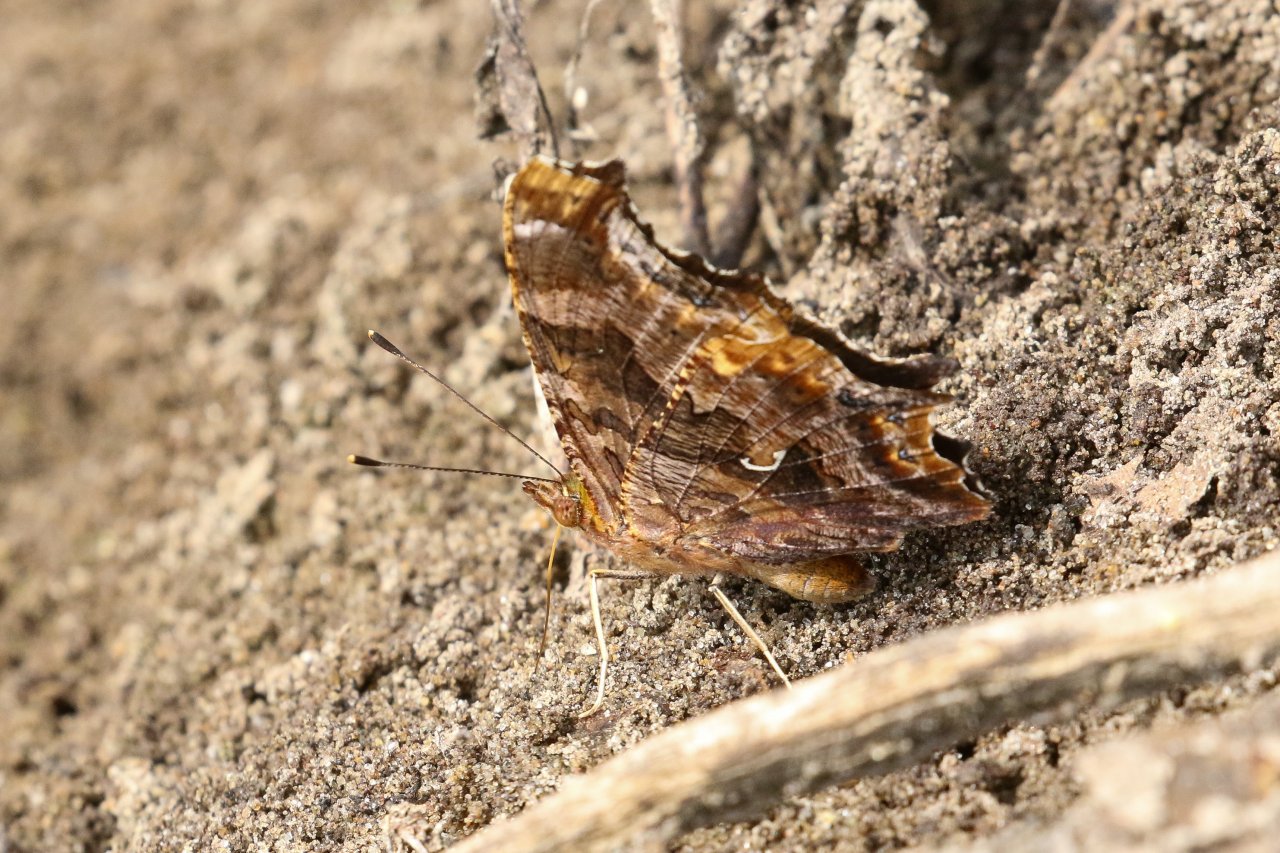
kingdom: Animalia
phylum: Arthropoda
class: Insecta
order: Lepidoptera
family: Nymphalidae
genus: Polygonia
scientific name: Polygonia comma
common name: Eastern Comma
